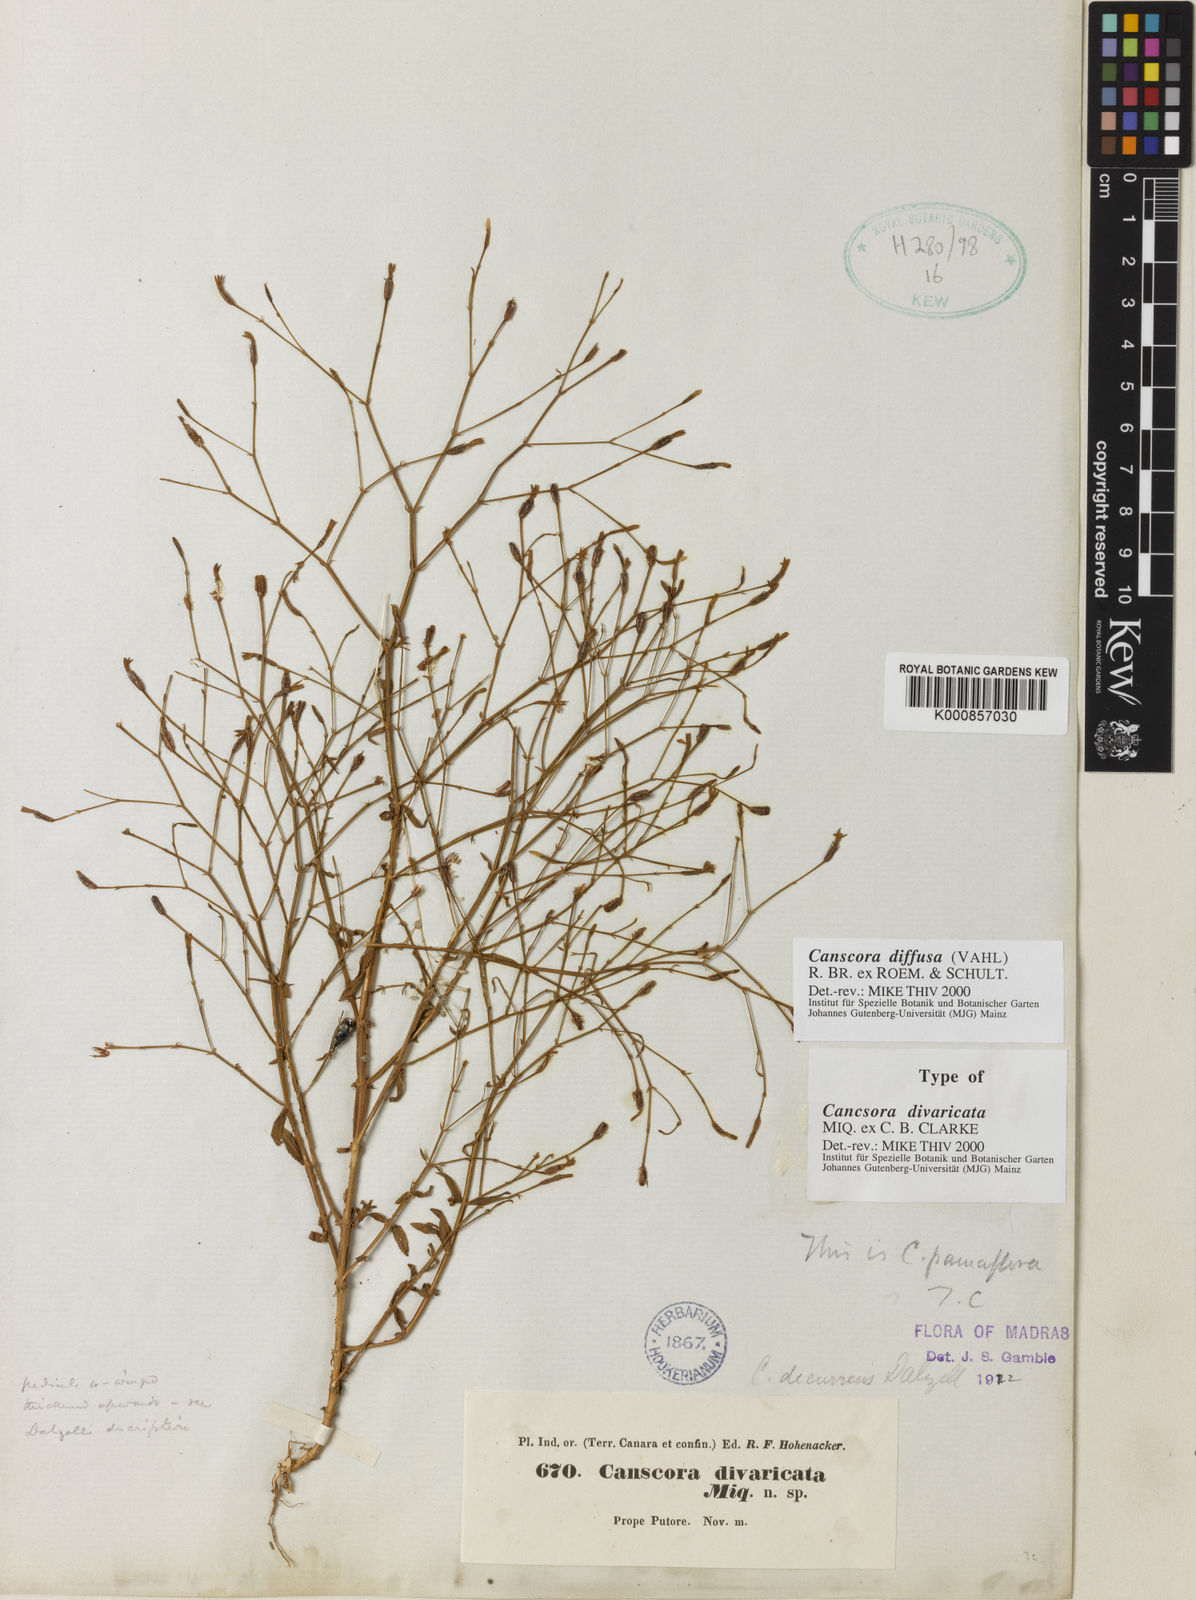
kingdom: Plantae
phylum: Tracheophyta
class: Magnoliopsida
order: Gentianales
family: Gentianaceae
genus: Canscora
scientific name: Canscora diffusa
